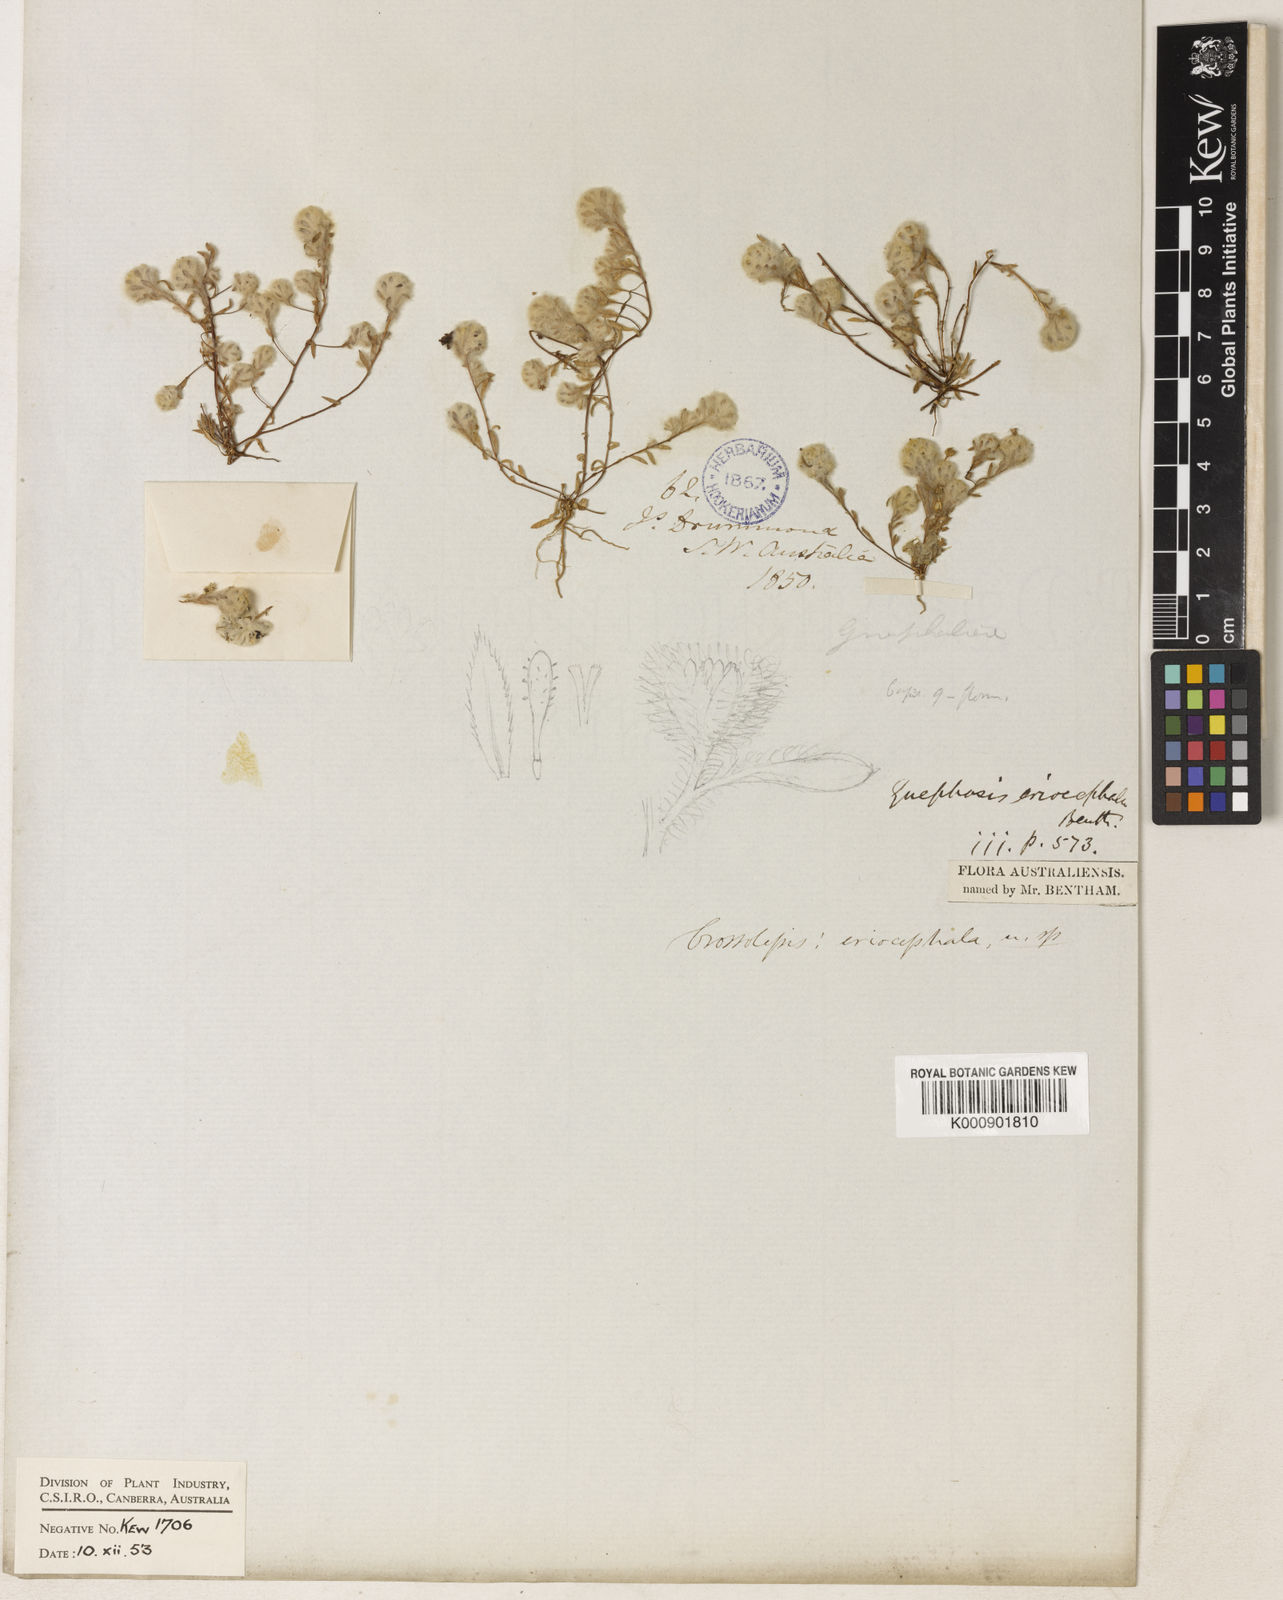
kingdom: Plantae
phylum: Tracheophyta
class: Magnoliopsida
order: Asterales
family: Asteraceae
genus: Gnephosis
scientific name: Gnephosis eriocephala
